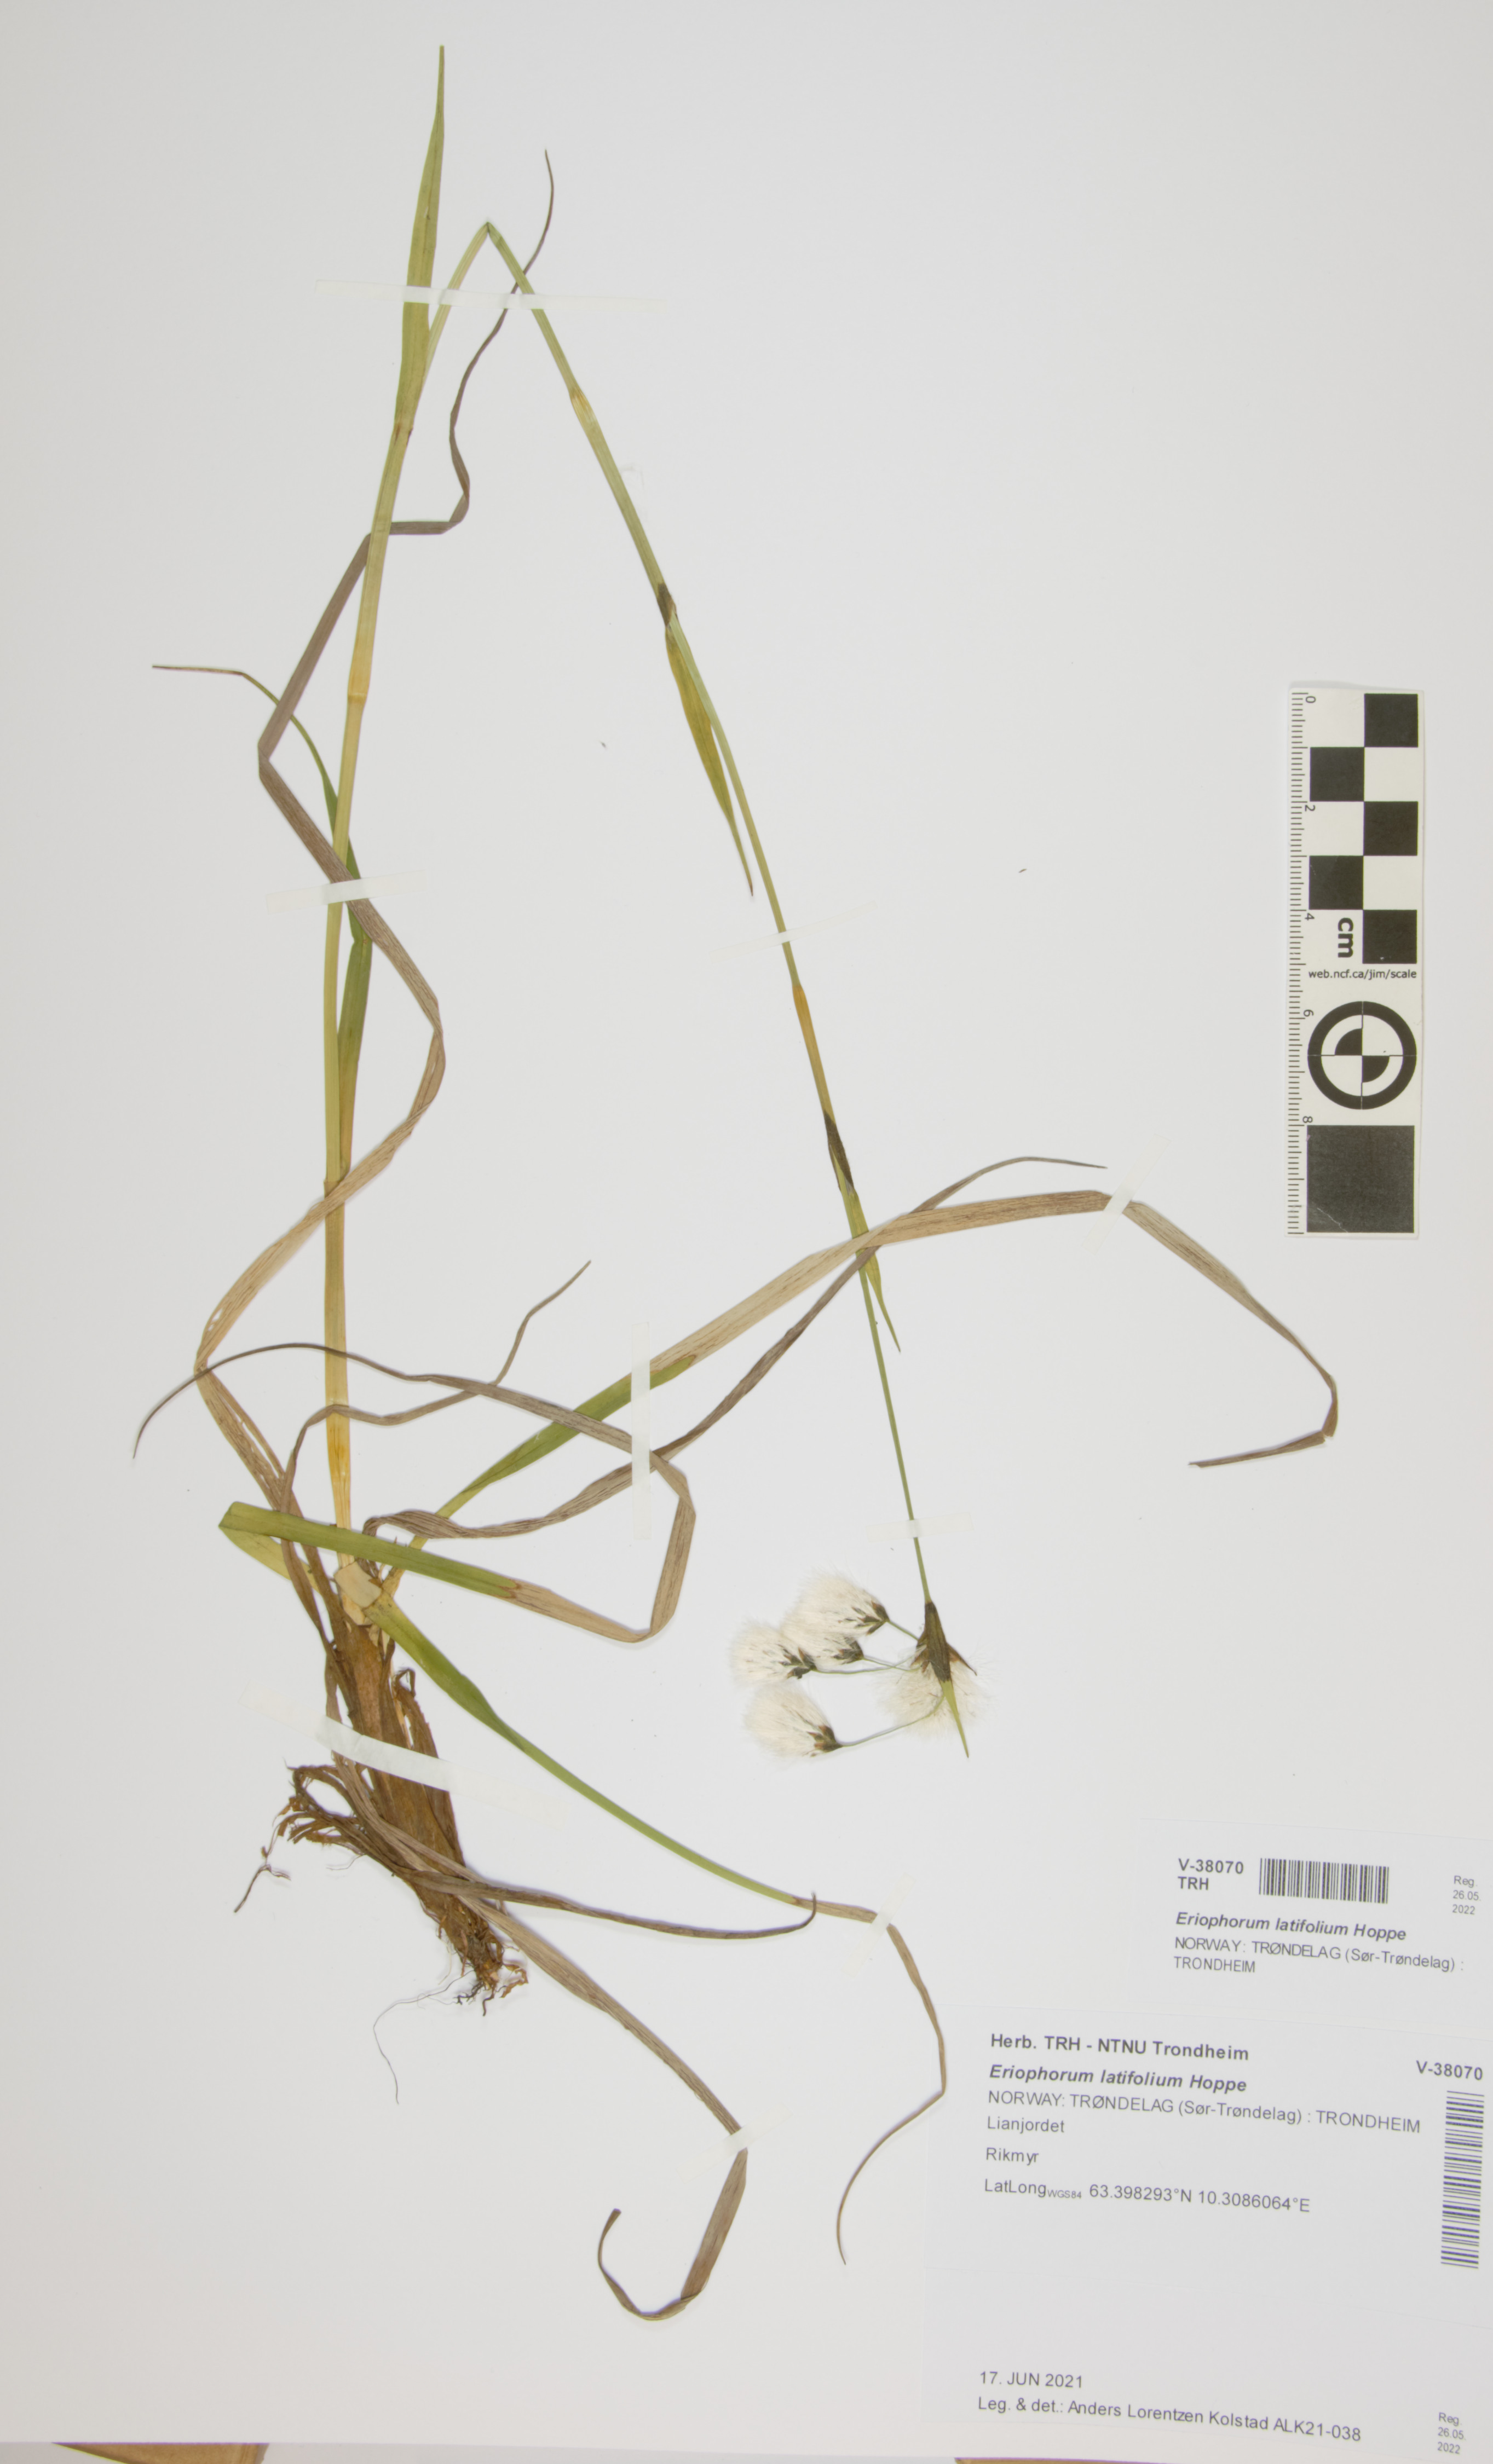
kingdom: Plantae
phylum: Tracheophyta
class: Liliopsida
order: Poales
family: Cyperaceae
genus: Eriophorum
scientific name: Eriophorum latifolium
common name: Broad-leaved cottongrass
